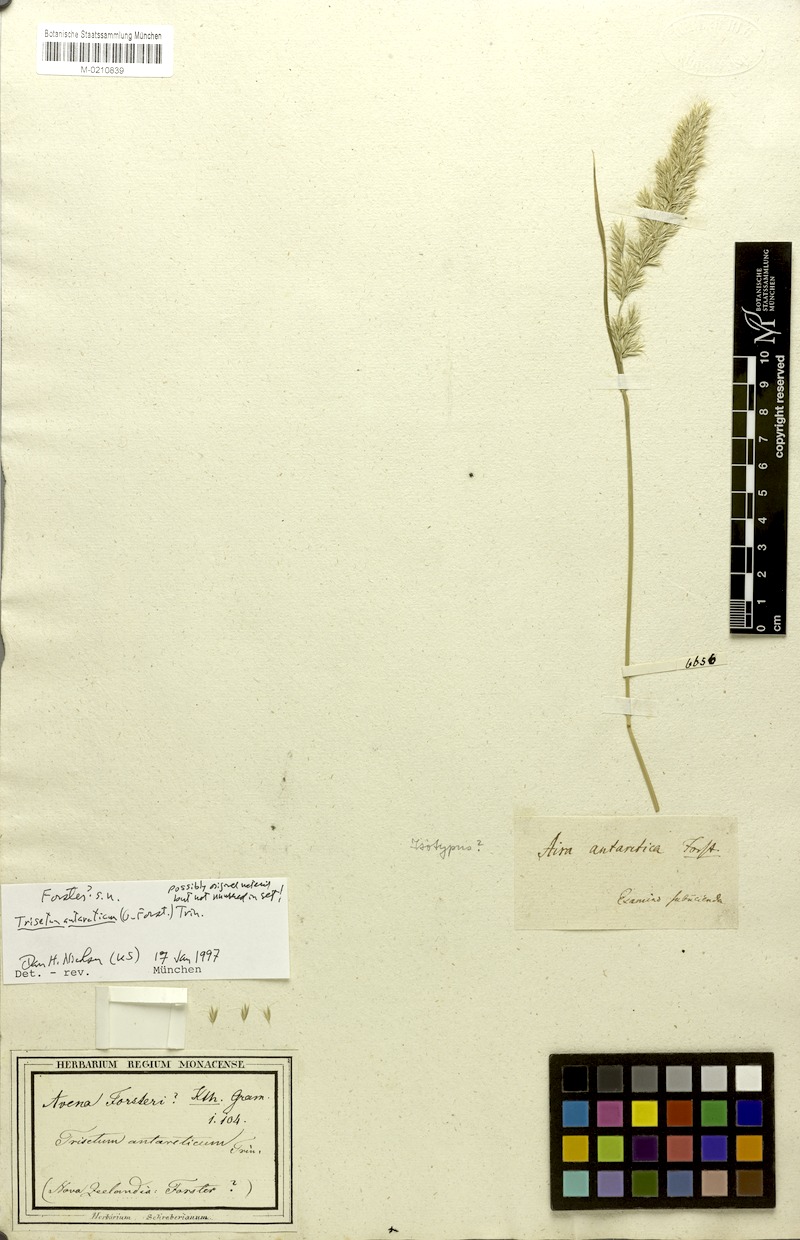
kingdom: Plantae
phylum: Tracheophyta
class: Liliopsida
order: Poales
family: Poaceae
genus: Koeleria
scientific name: Koeleria antarctica
